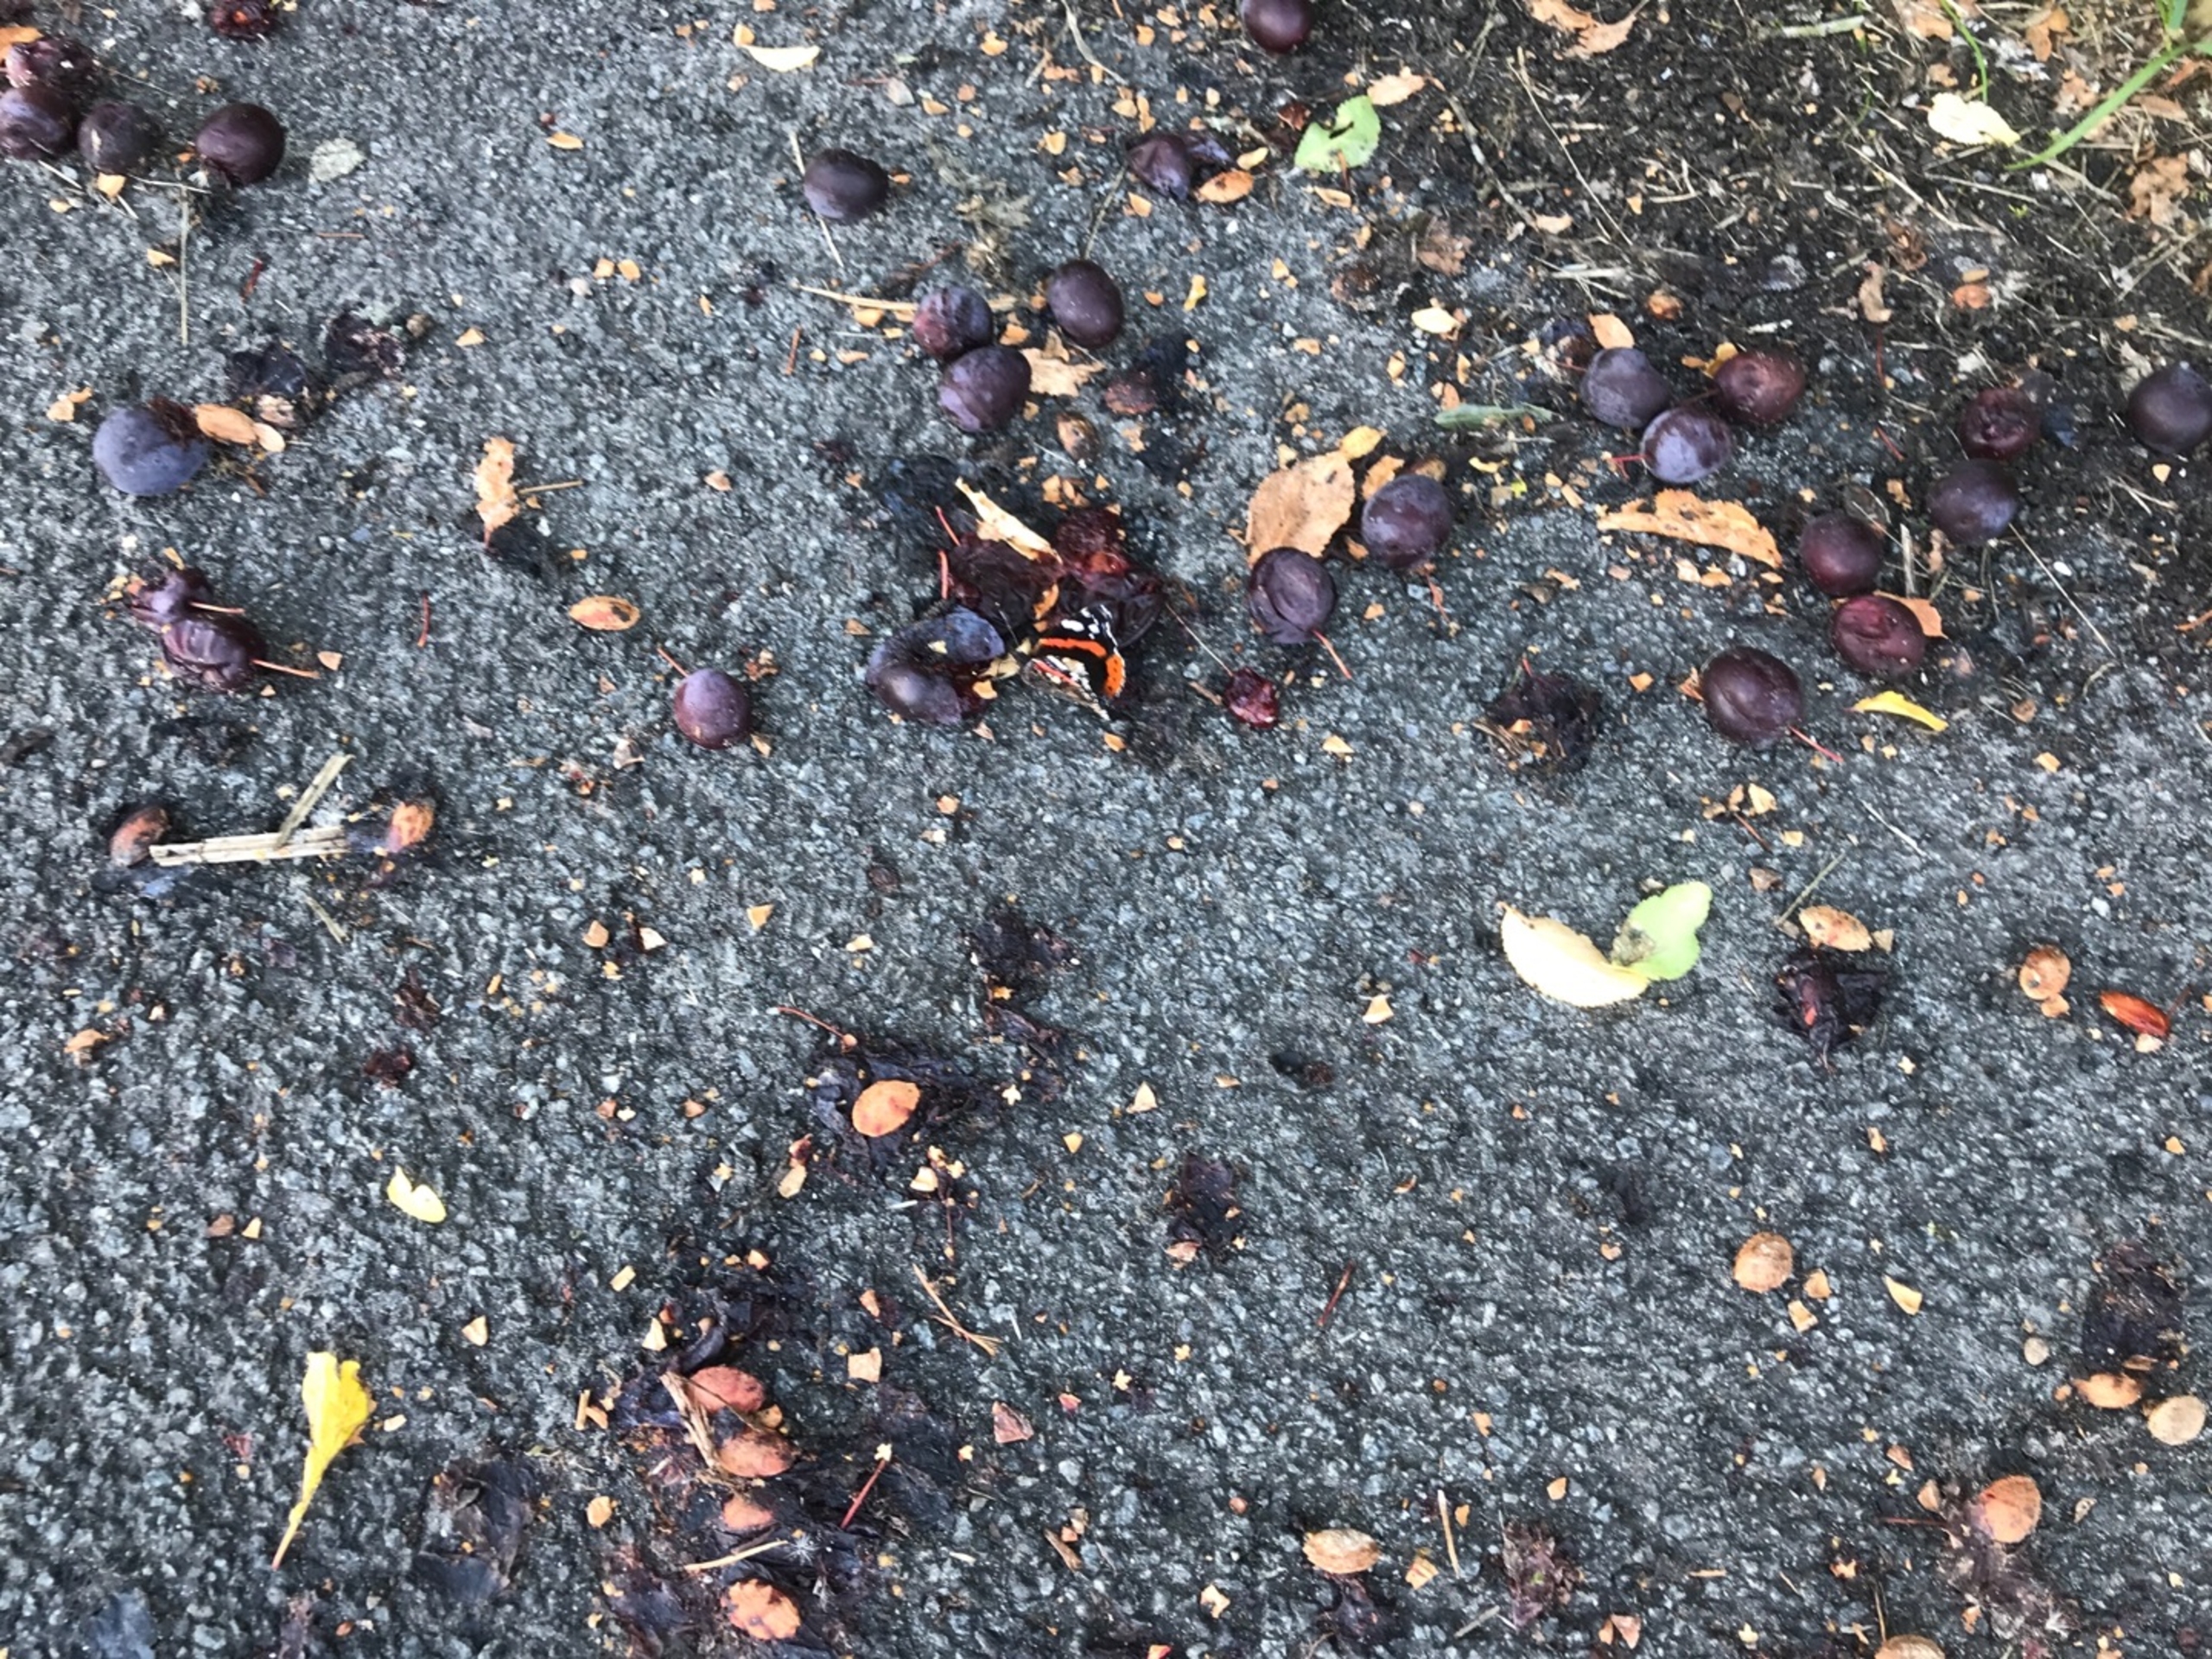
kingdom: Animalia
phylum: Arthropoda
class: Insecta
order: Lepidoptera
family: Nymphalidae
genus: Vanessa
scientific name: Vanessa atalanta
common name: Admiral
